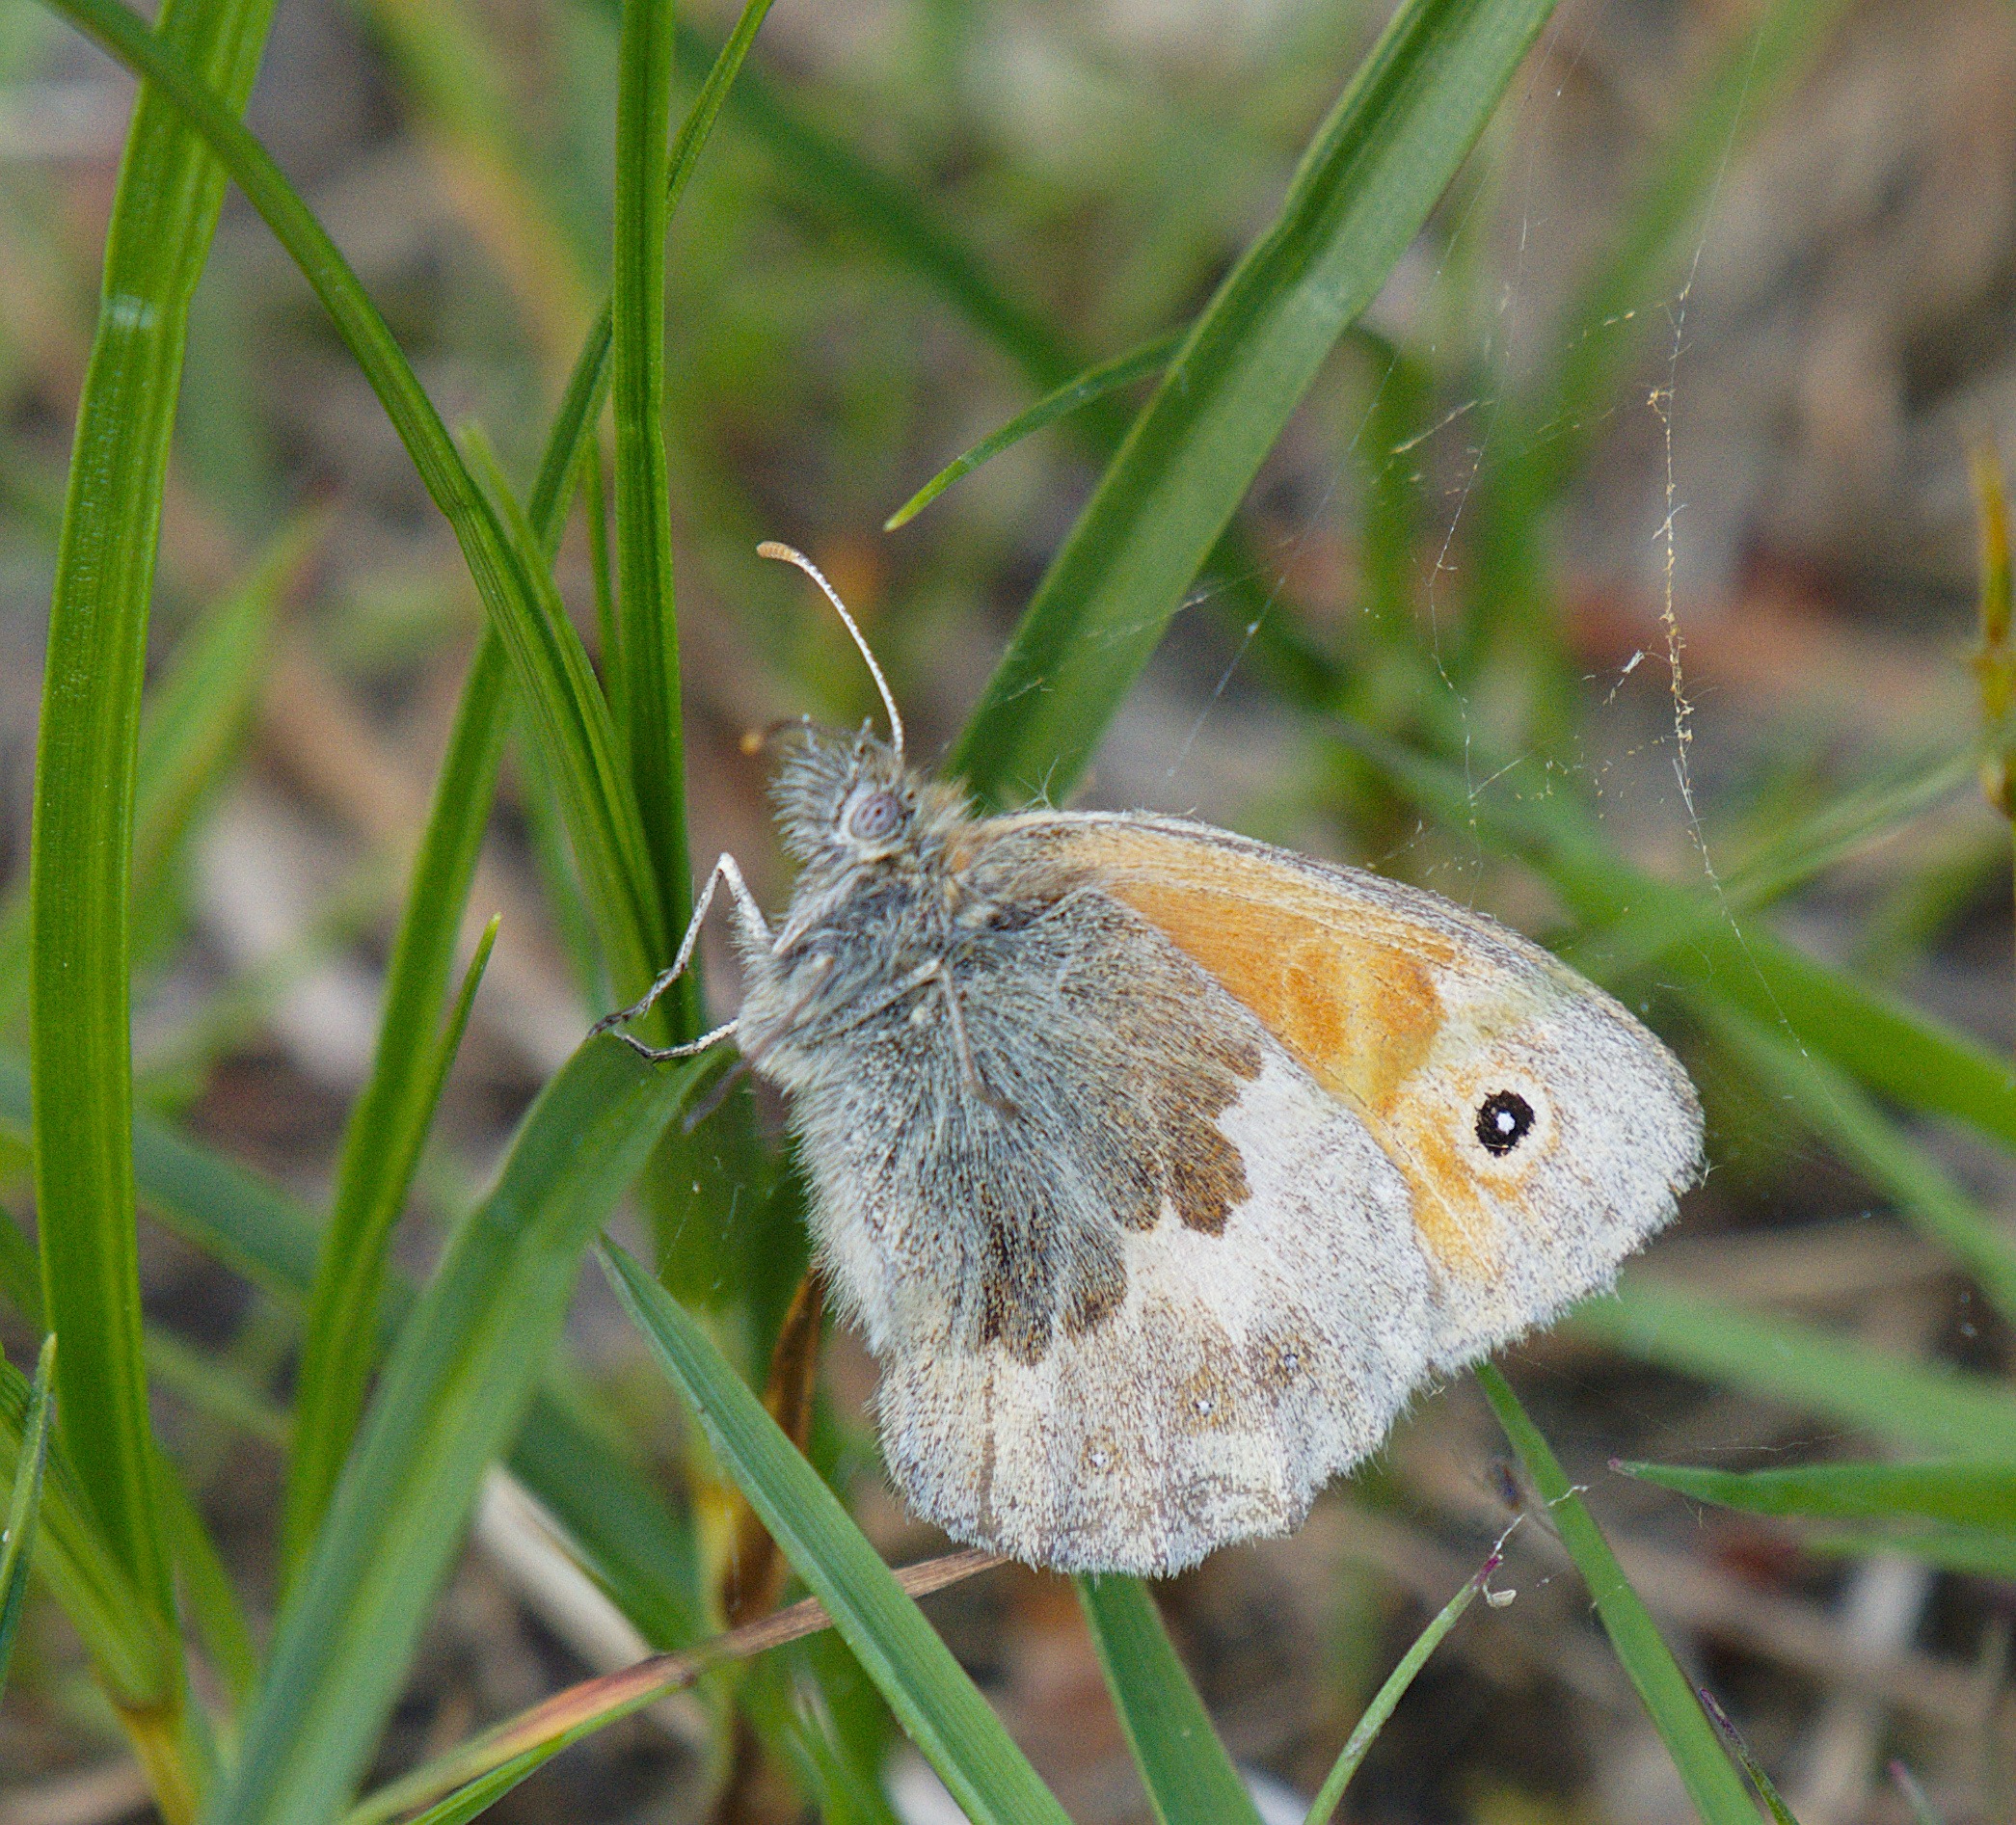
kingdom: Animalia
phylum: Arthropoda
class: Insecta
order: Lepidoptera
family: Nymphalidae
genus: Coenonympha
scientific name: Coenonympha pamphilus
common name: Okkergul randøje
